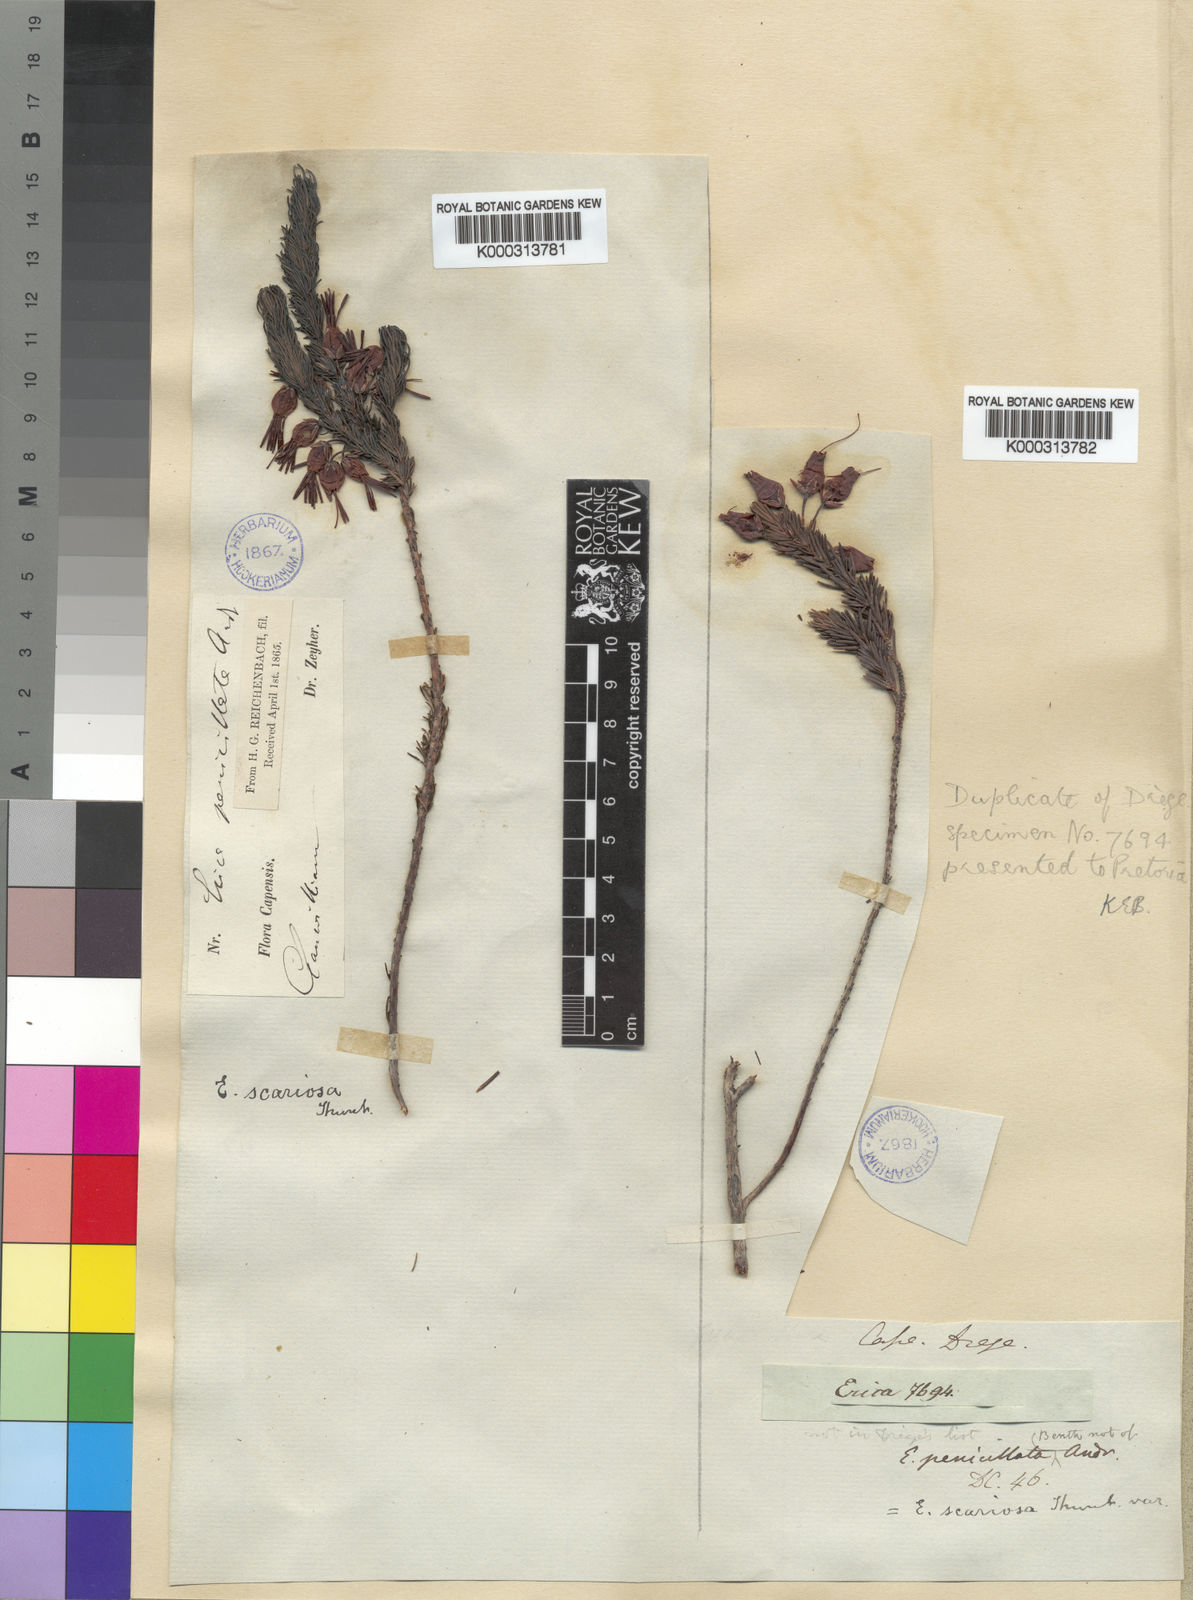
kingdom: Plantae
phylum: Tracheophyta
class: Magnoliopsida
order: Ericales
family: Ericaceae
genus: Erica
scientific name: Erica plukenetii
